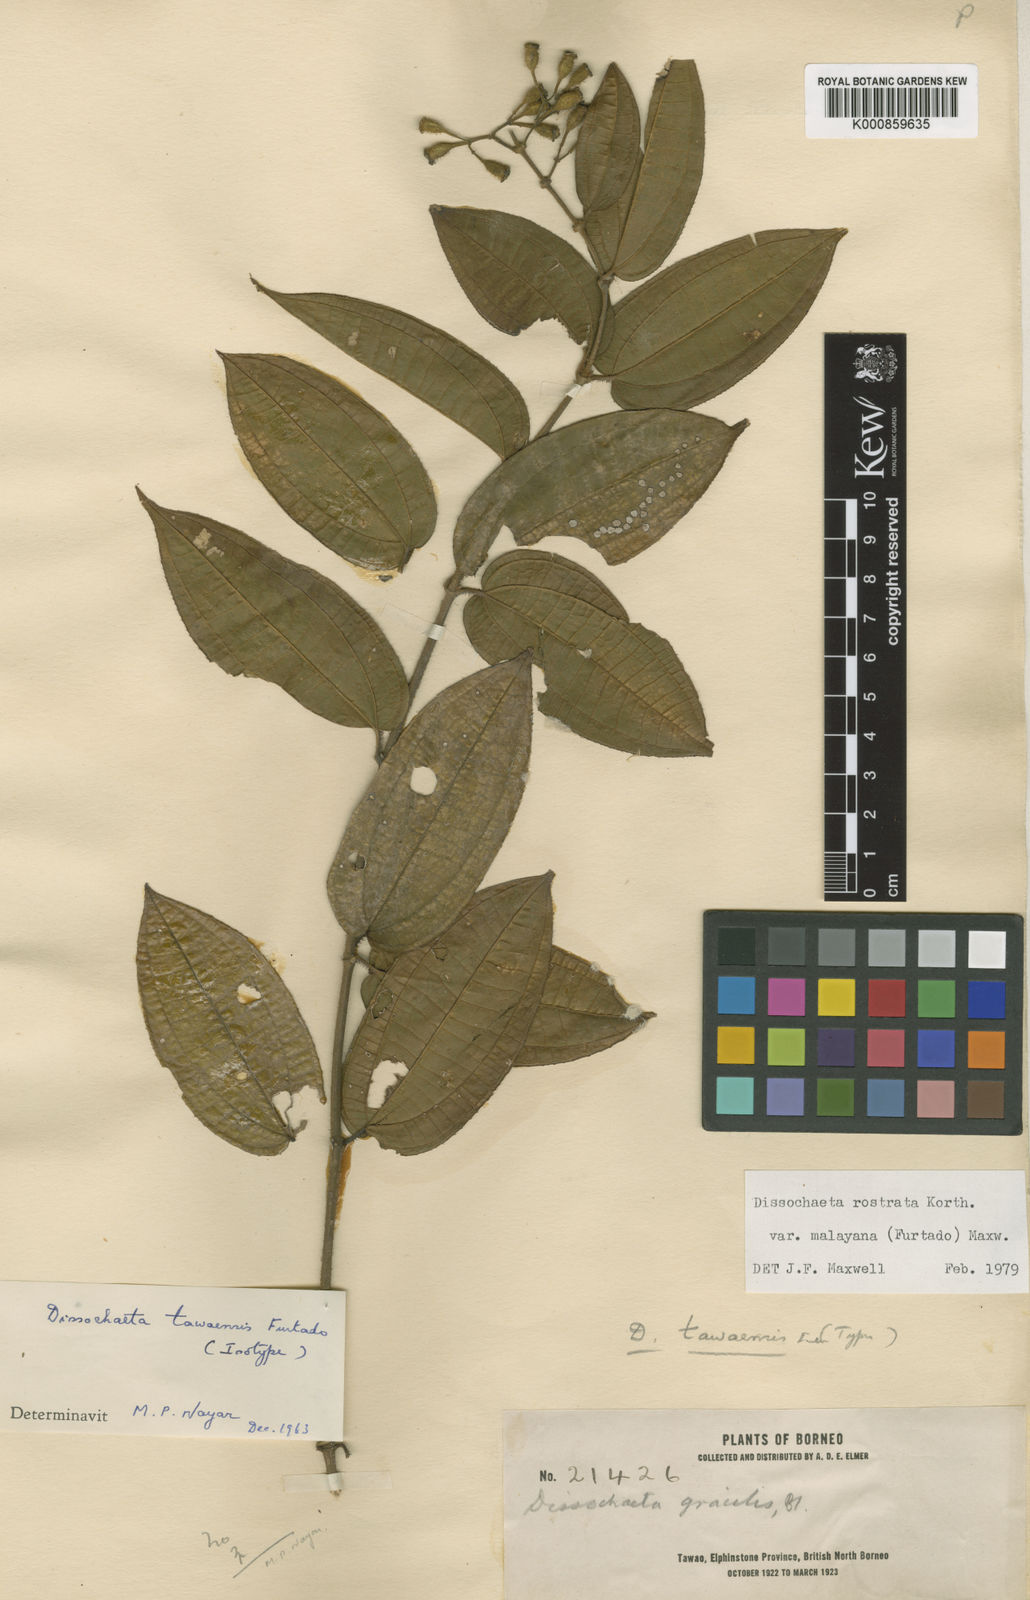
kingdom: Plantae
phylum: Tracheophyta
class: Magnoliopsida
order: Myrtales
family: Melastomataceae
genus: Dissochaeta
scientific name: Dissochaeta malayana
